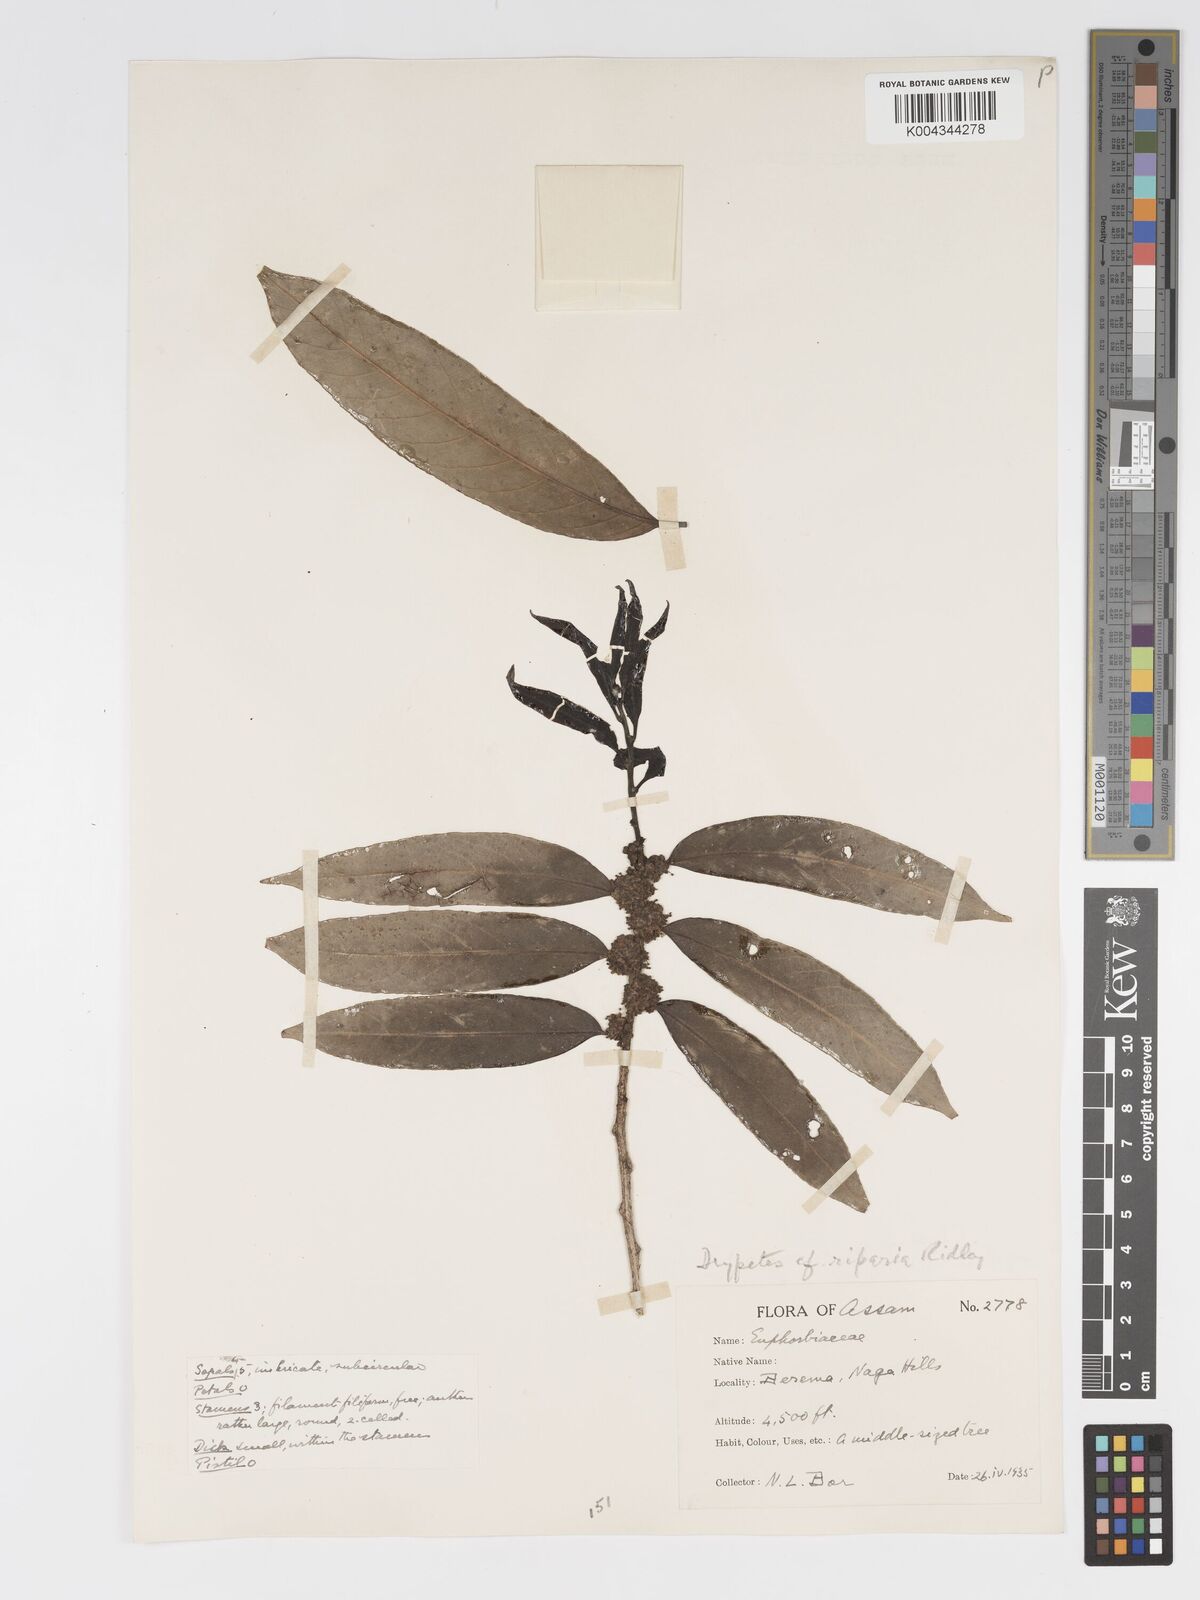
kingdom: Plantae
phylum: Tracheophyta
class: Magnoliopsida
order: Malpighiales
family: Putranjivaceae
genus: Drypetes
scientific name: Drypetes riparia
